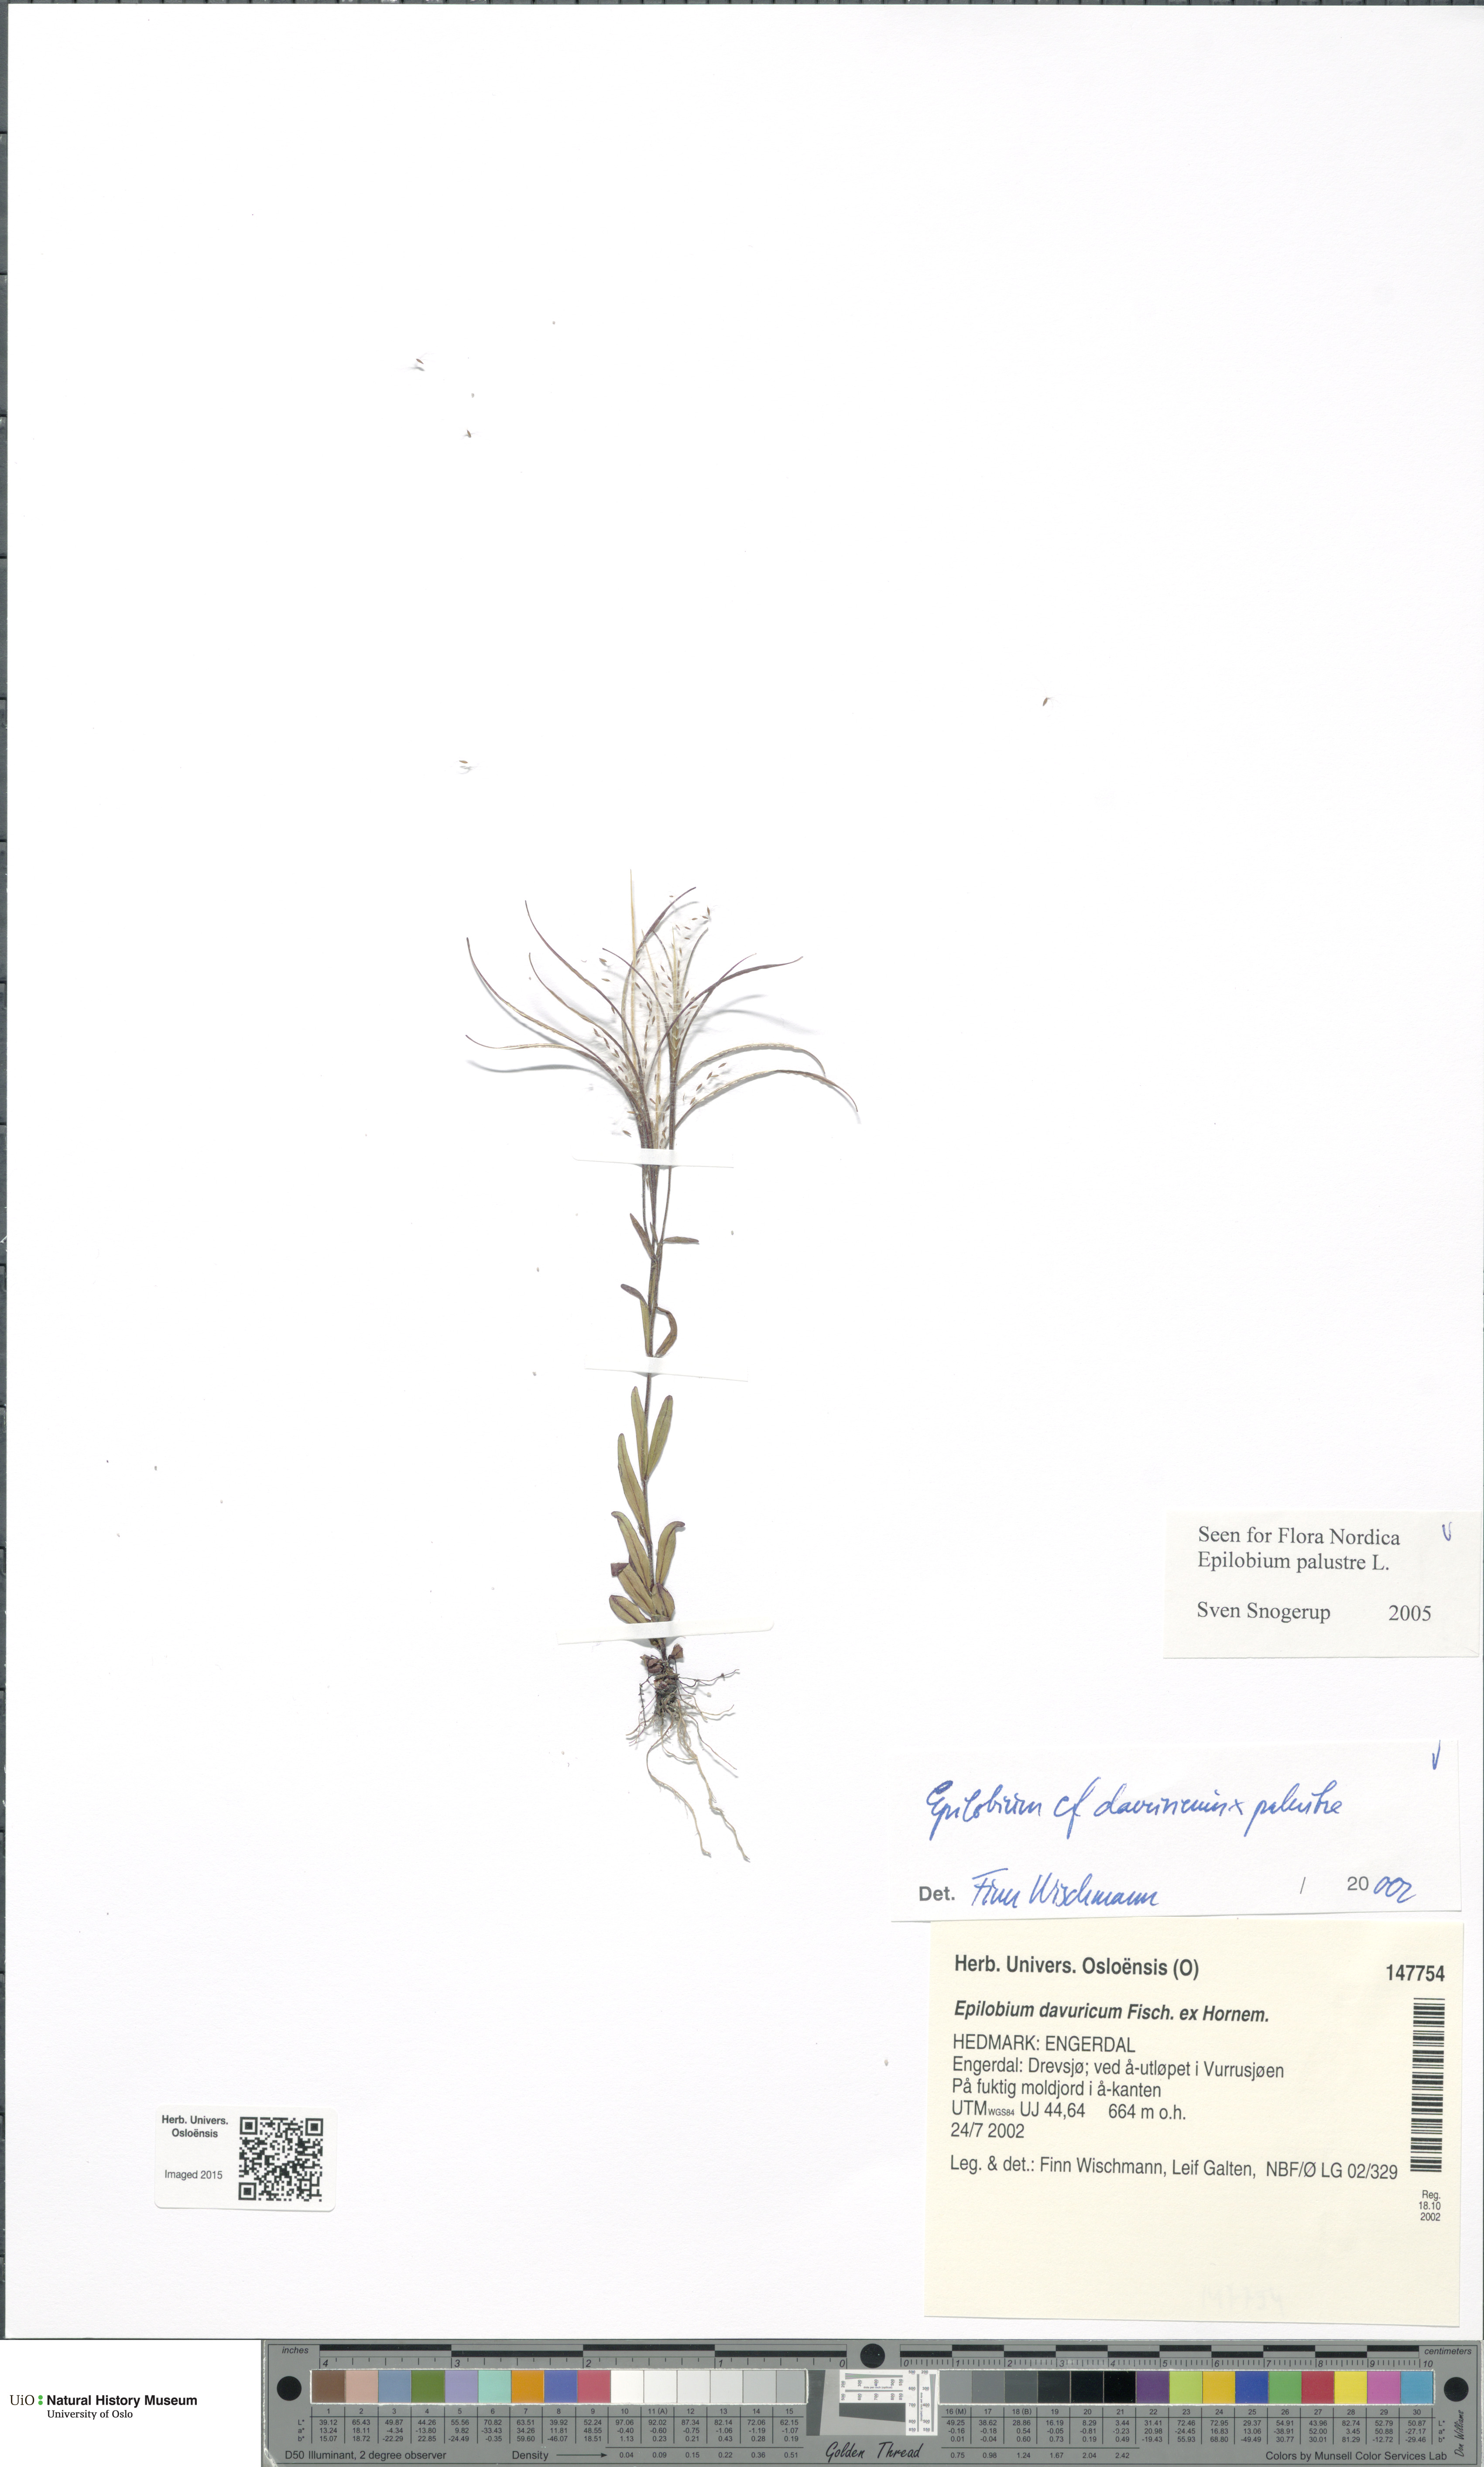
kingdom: Plantae
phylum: Tracheophyta
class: Magnoliopsida
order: Myrtales
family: Onagraceae
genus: Epilobium
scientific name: Epilobium palustre
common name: Marsh willowherb
